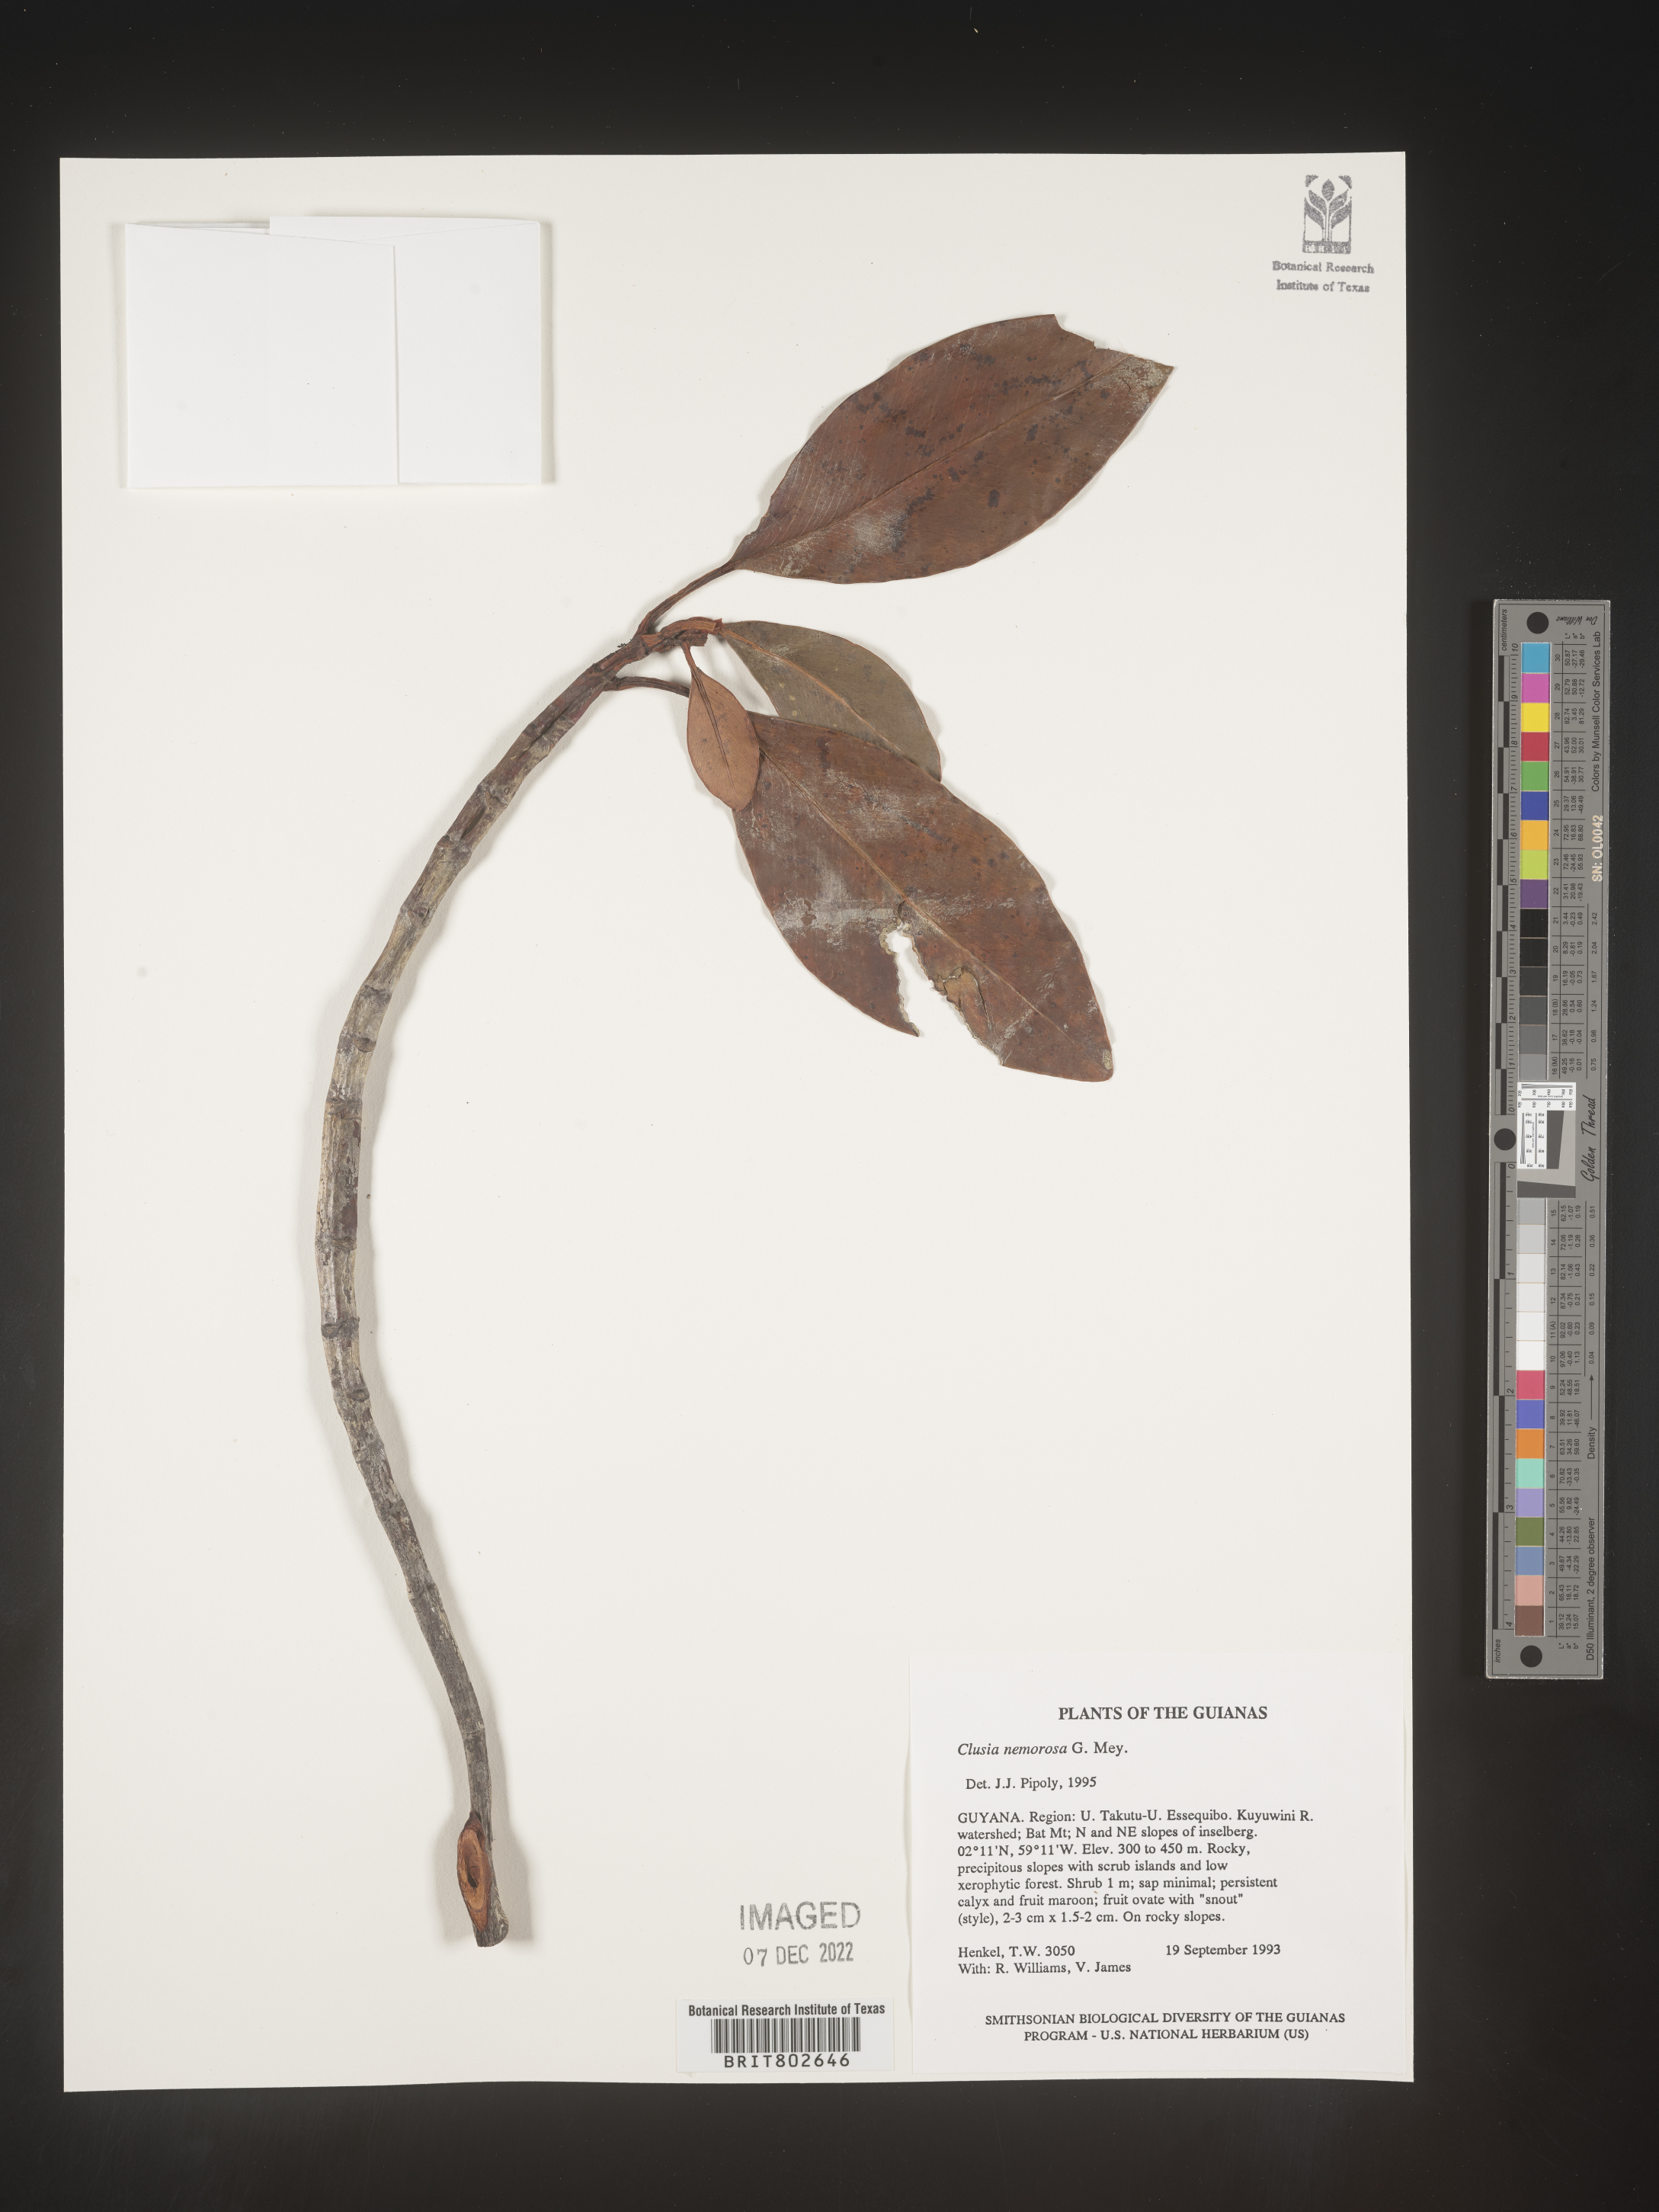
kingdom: Plantae
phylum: Tracheophyta
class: Magnoliopsida
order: Malpighiales
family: Clusiaceae
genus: Clusia
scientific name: Clusia nemorosa
